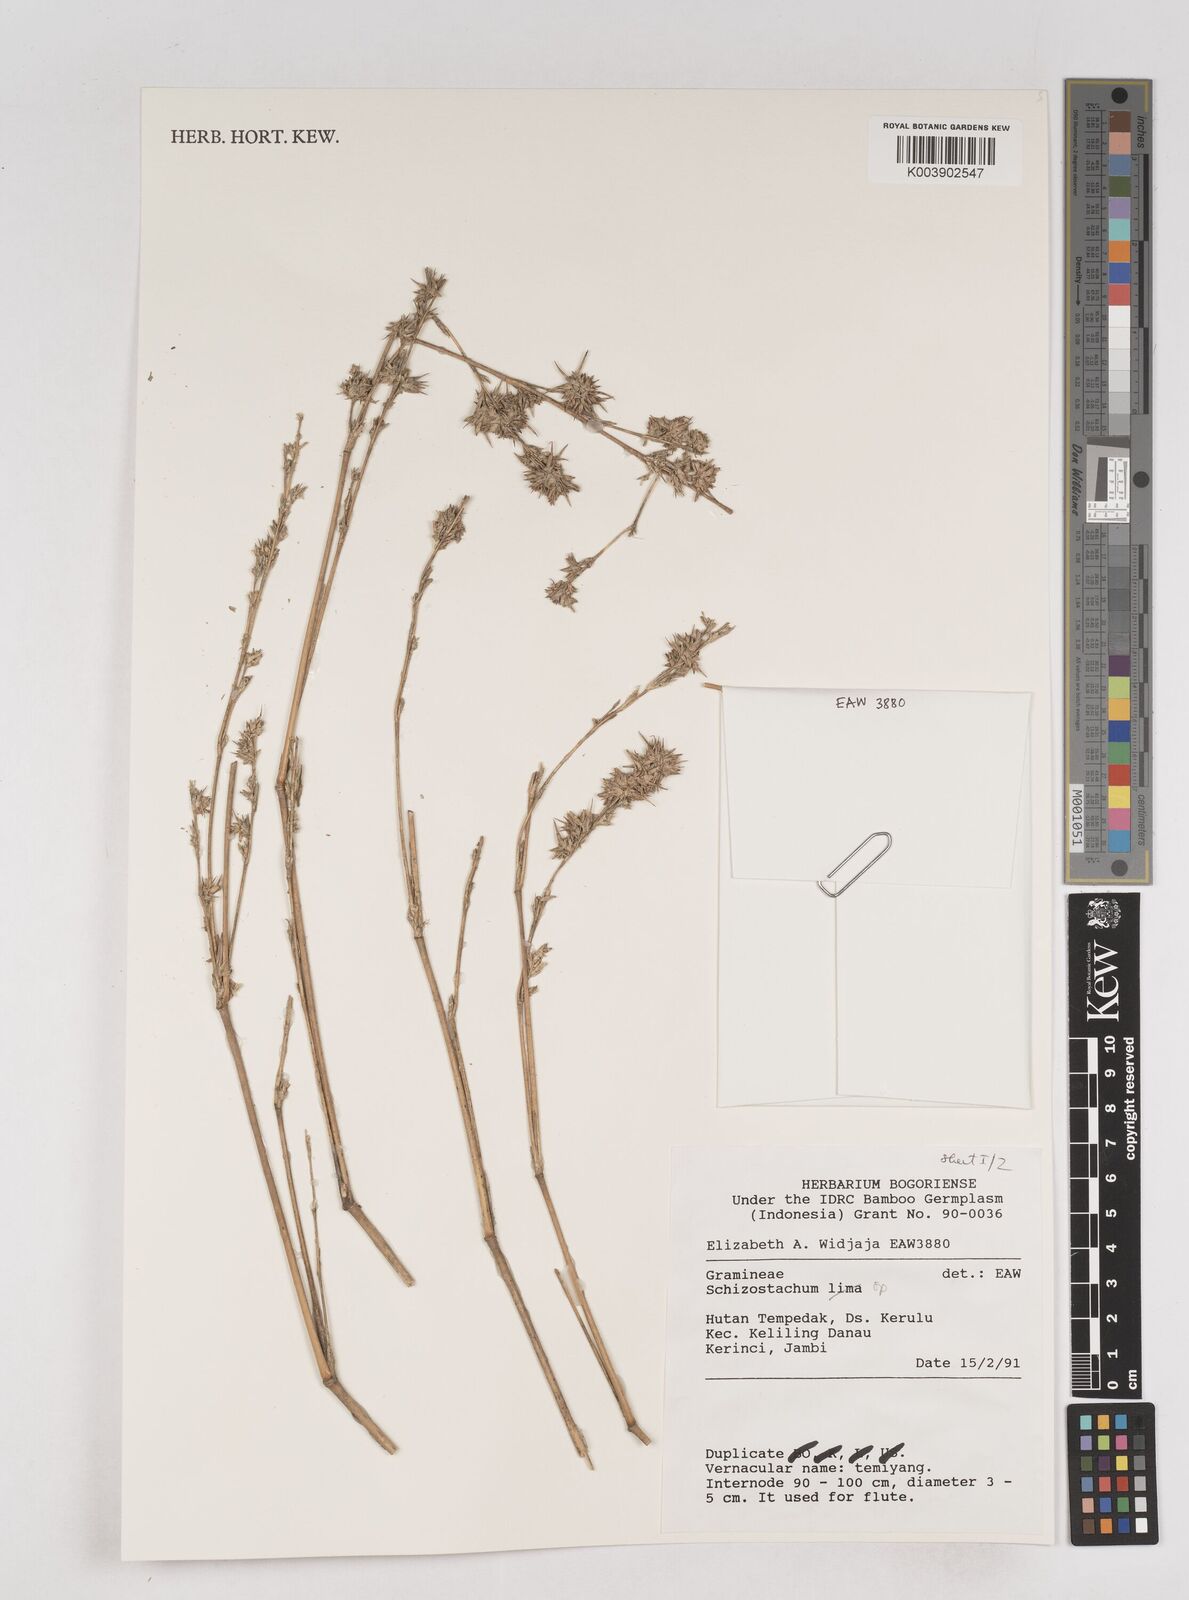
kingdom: Plantae
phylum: Tracheophyta
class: Liliopsida
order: Poales
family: Poaceae
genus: Schizostachyum
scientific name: Schizostachyum
